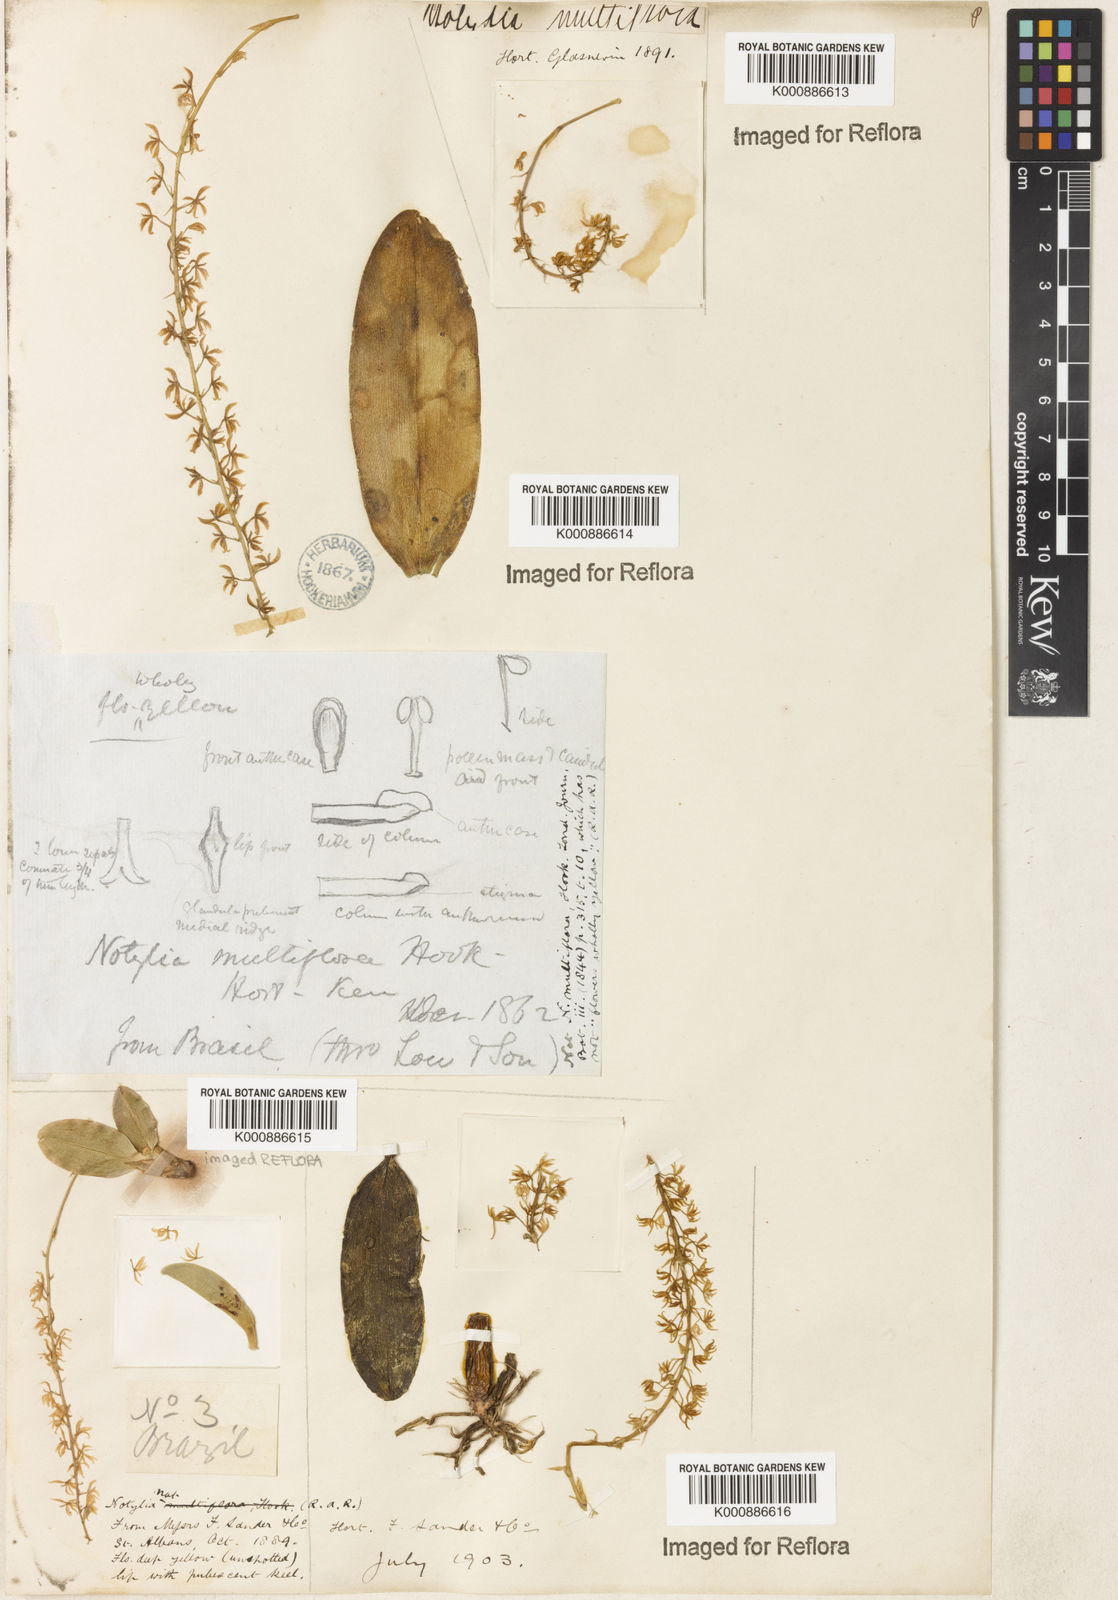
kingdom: Plantae
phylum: Tracheophyta
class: Liliopsida
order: Asparagales
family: Orchidaceae
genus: Notylia
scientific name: Notylia
